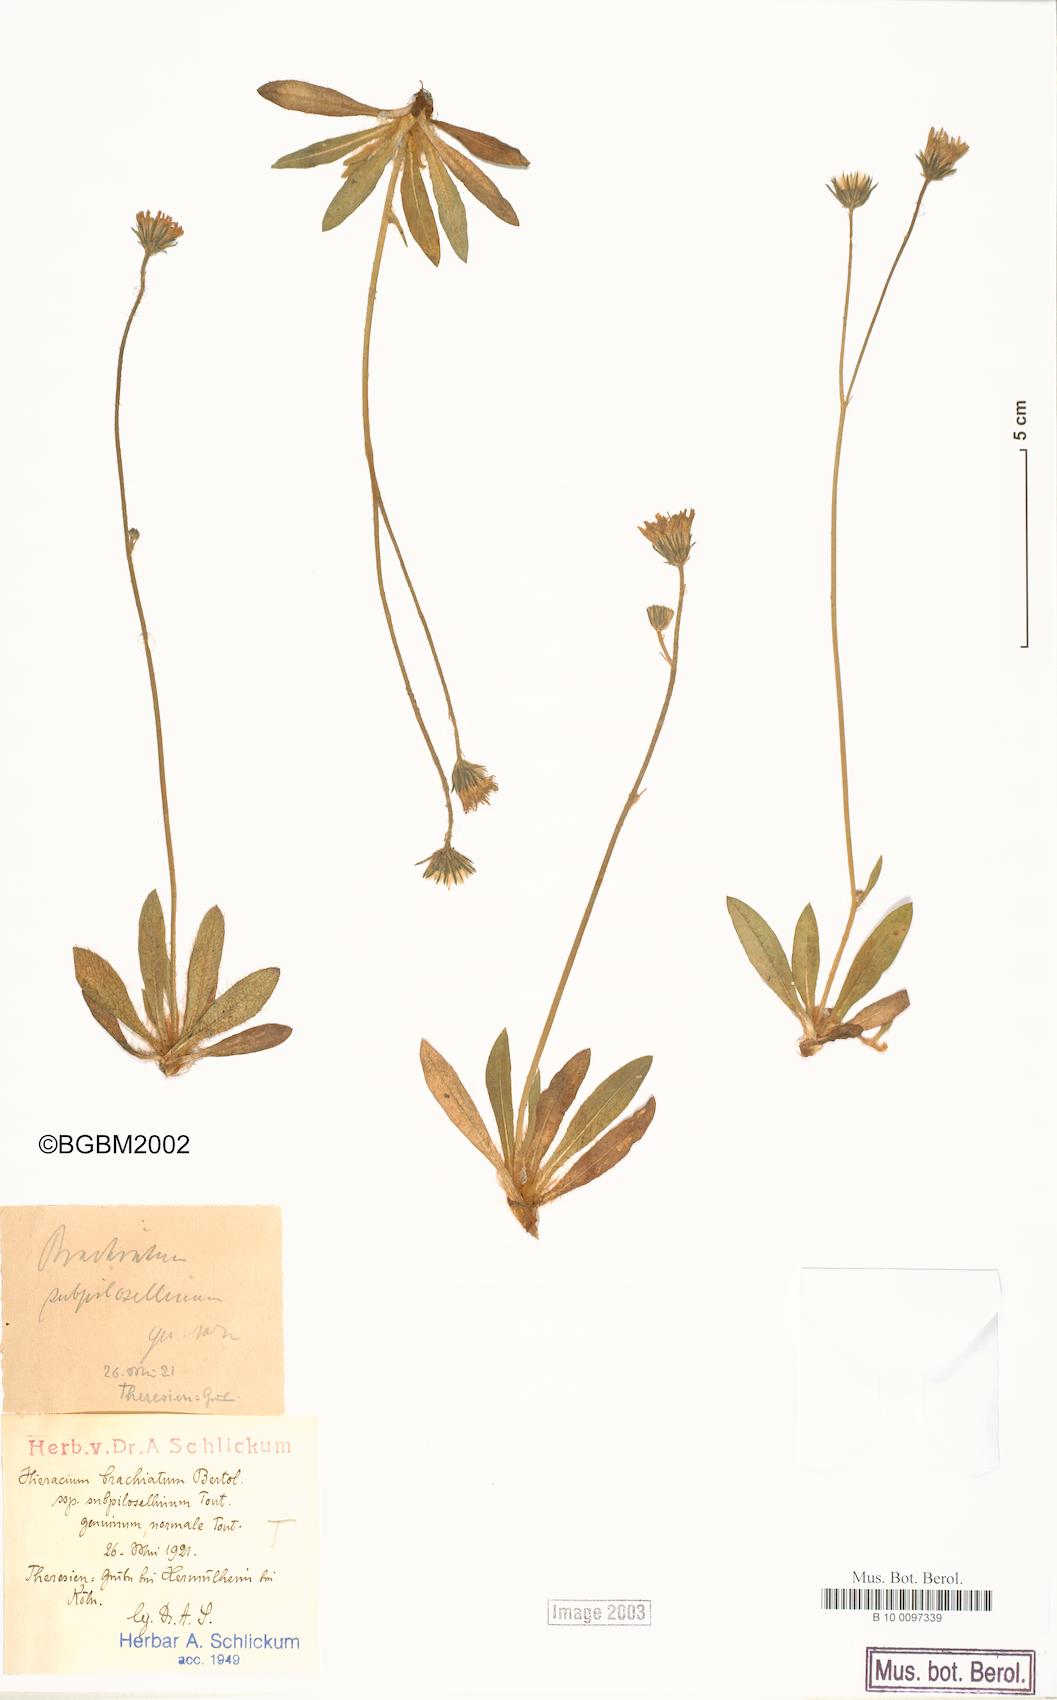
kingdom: Plantae
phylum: Tracheophyta
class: Magnoliopsida
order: Asterales
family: Asteraceae
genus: Pilosella
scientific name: Pilosella acutifolia
